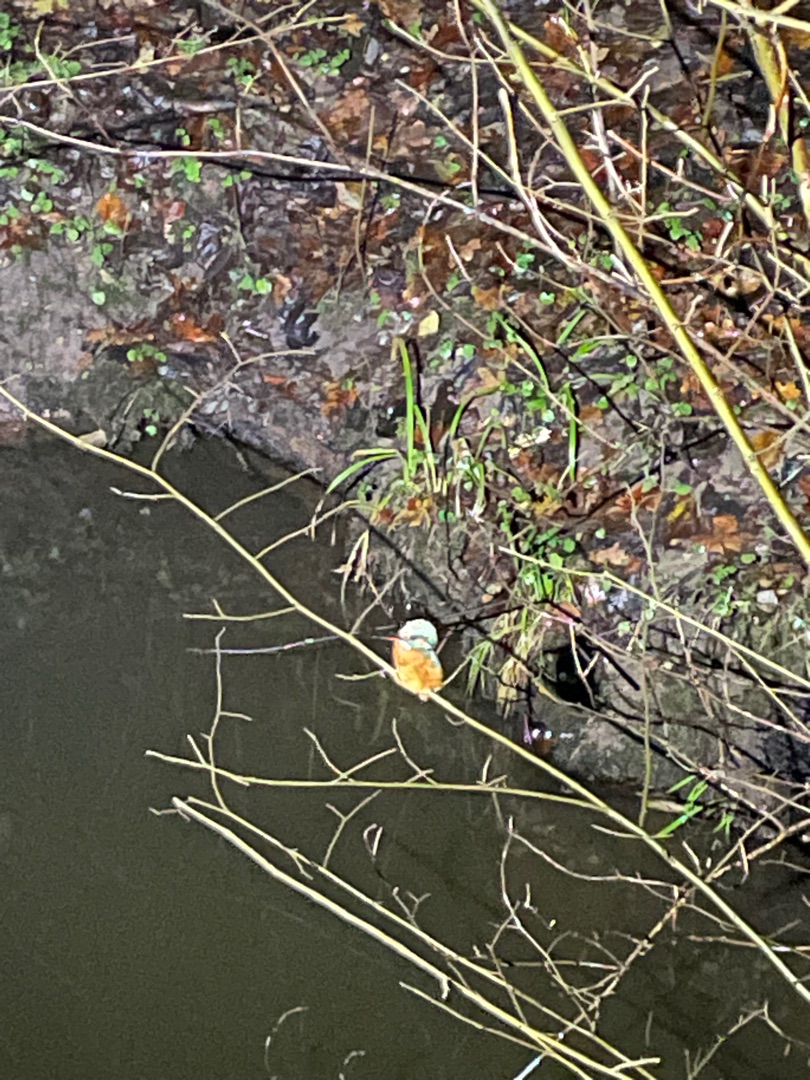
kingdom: Animalia
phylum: Chordata
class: Aves
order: Coraciiformes
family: Alcedinidae
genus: Alcedo
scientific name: Alcedo atthis
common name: Isfugl
